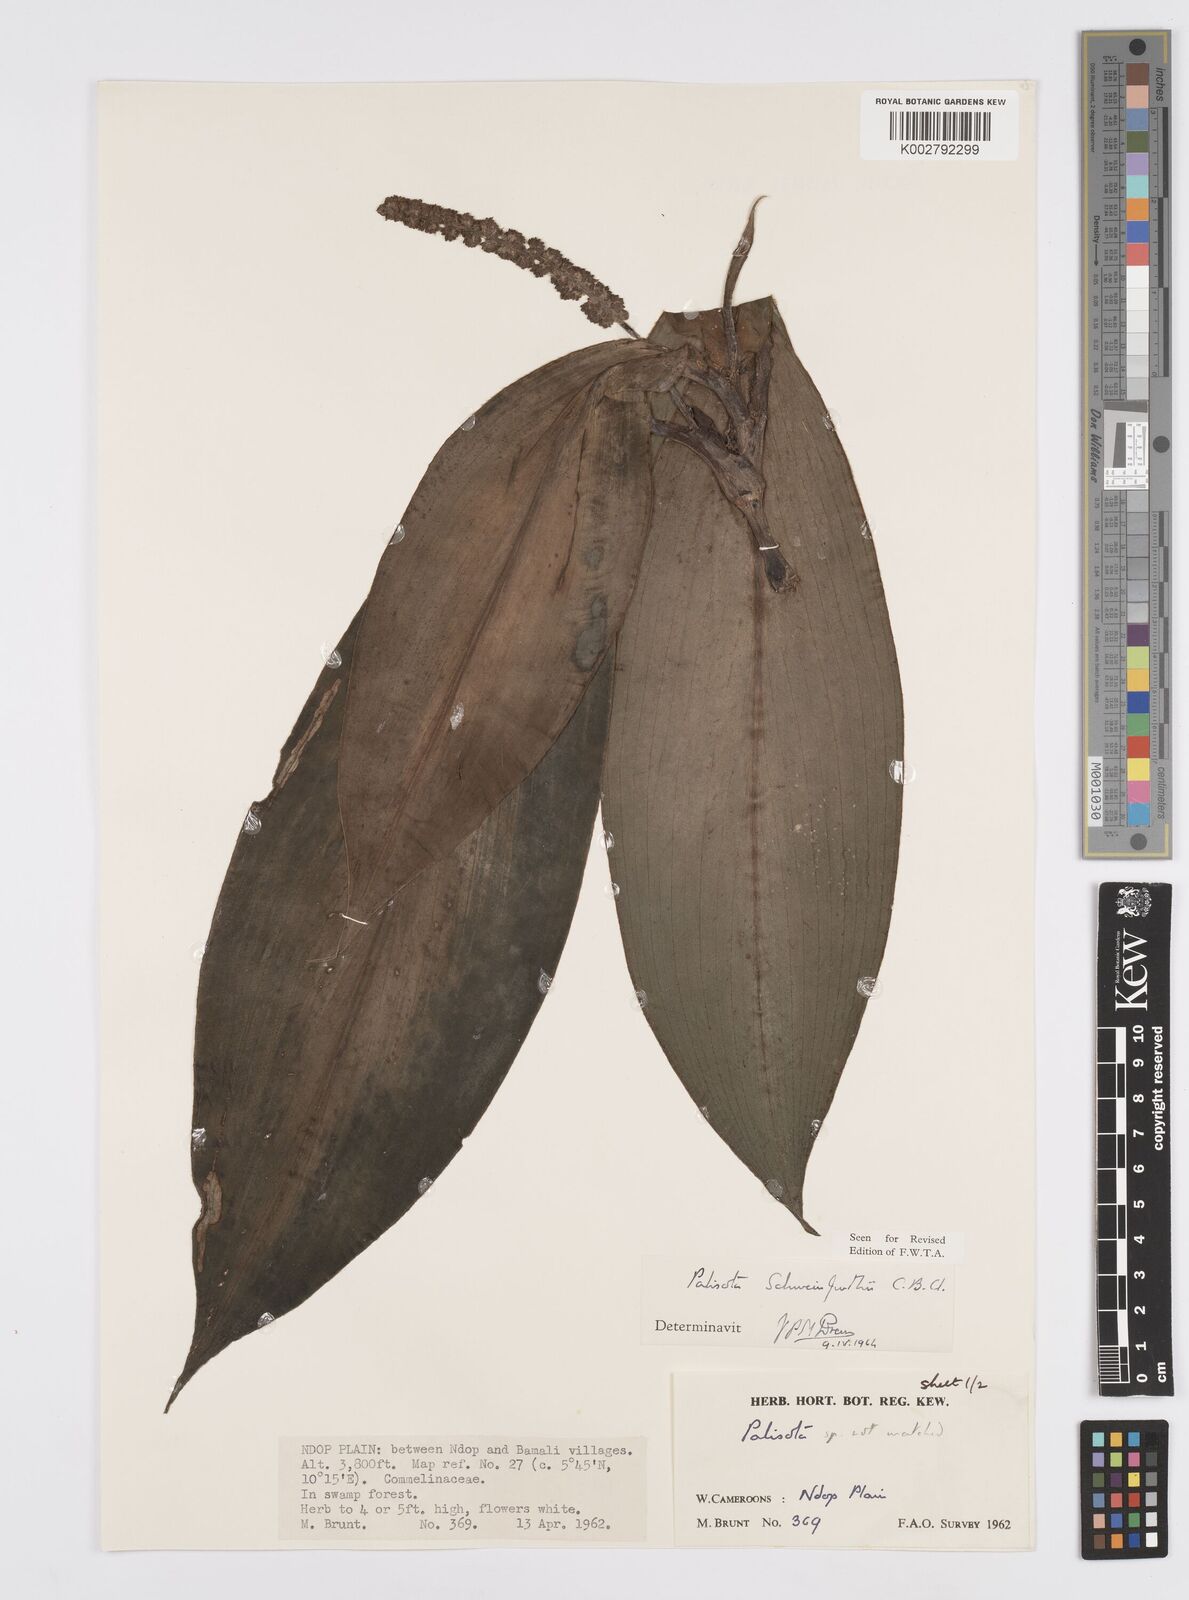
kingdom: Plantae
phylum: Tracheophyta
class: Liliopsida
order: Commelinales
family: Commelinaceae
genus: Palisota
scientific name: Palisota schweinfurthii
